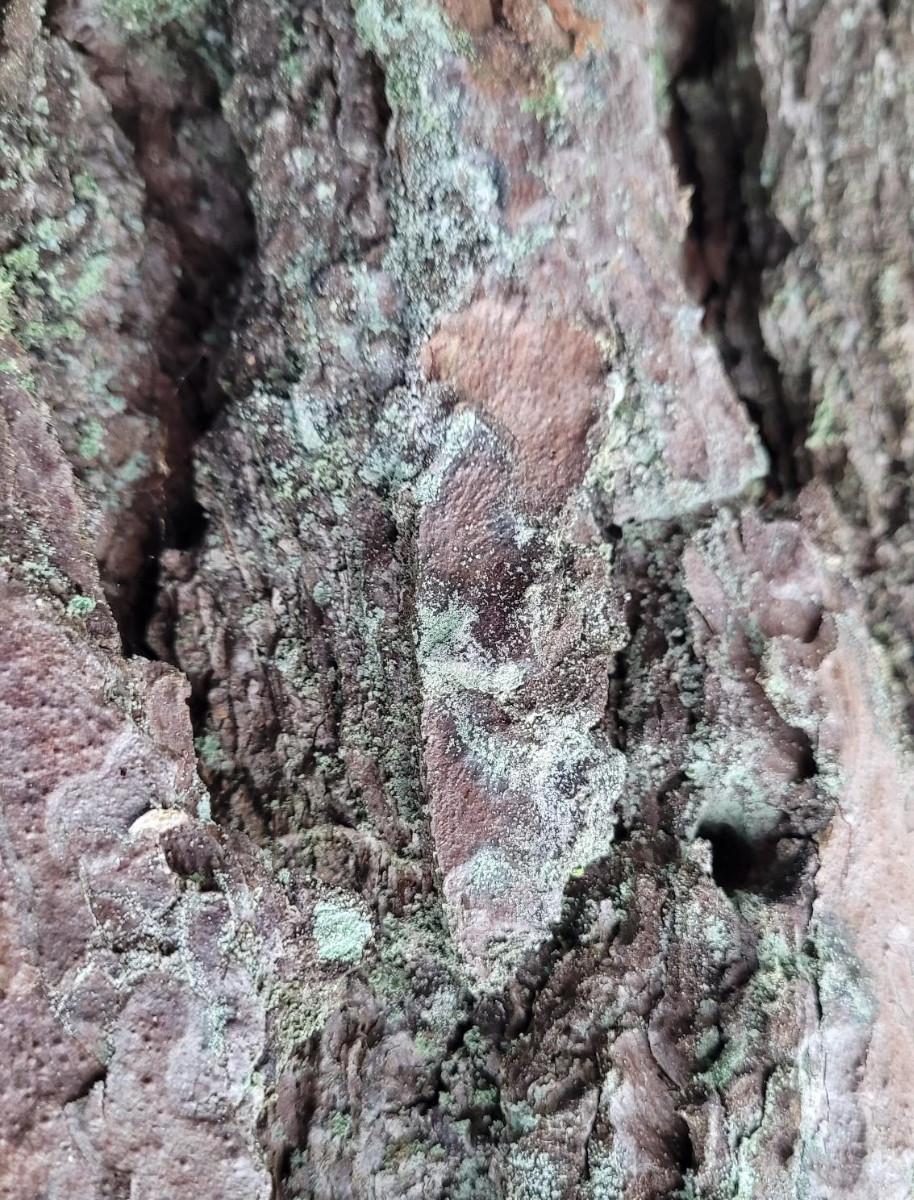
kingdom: Fungi
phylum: Ascomycota
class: Lecanoromycetes
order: Lecideales
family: Lecideaceae
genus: Lecidea
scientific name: Lecidea nylanderi
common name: Nylander's tile lichen
